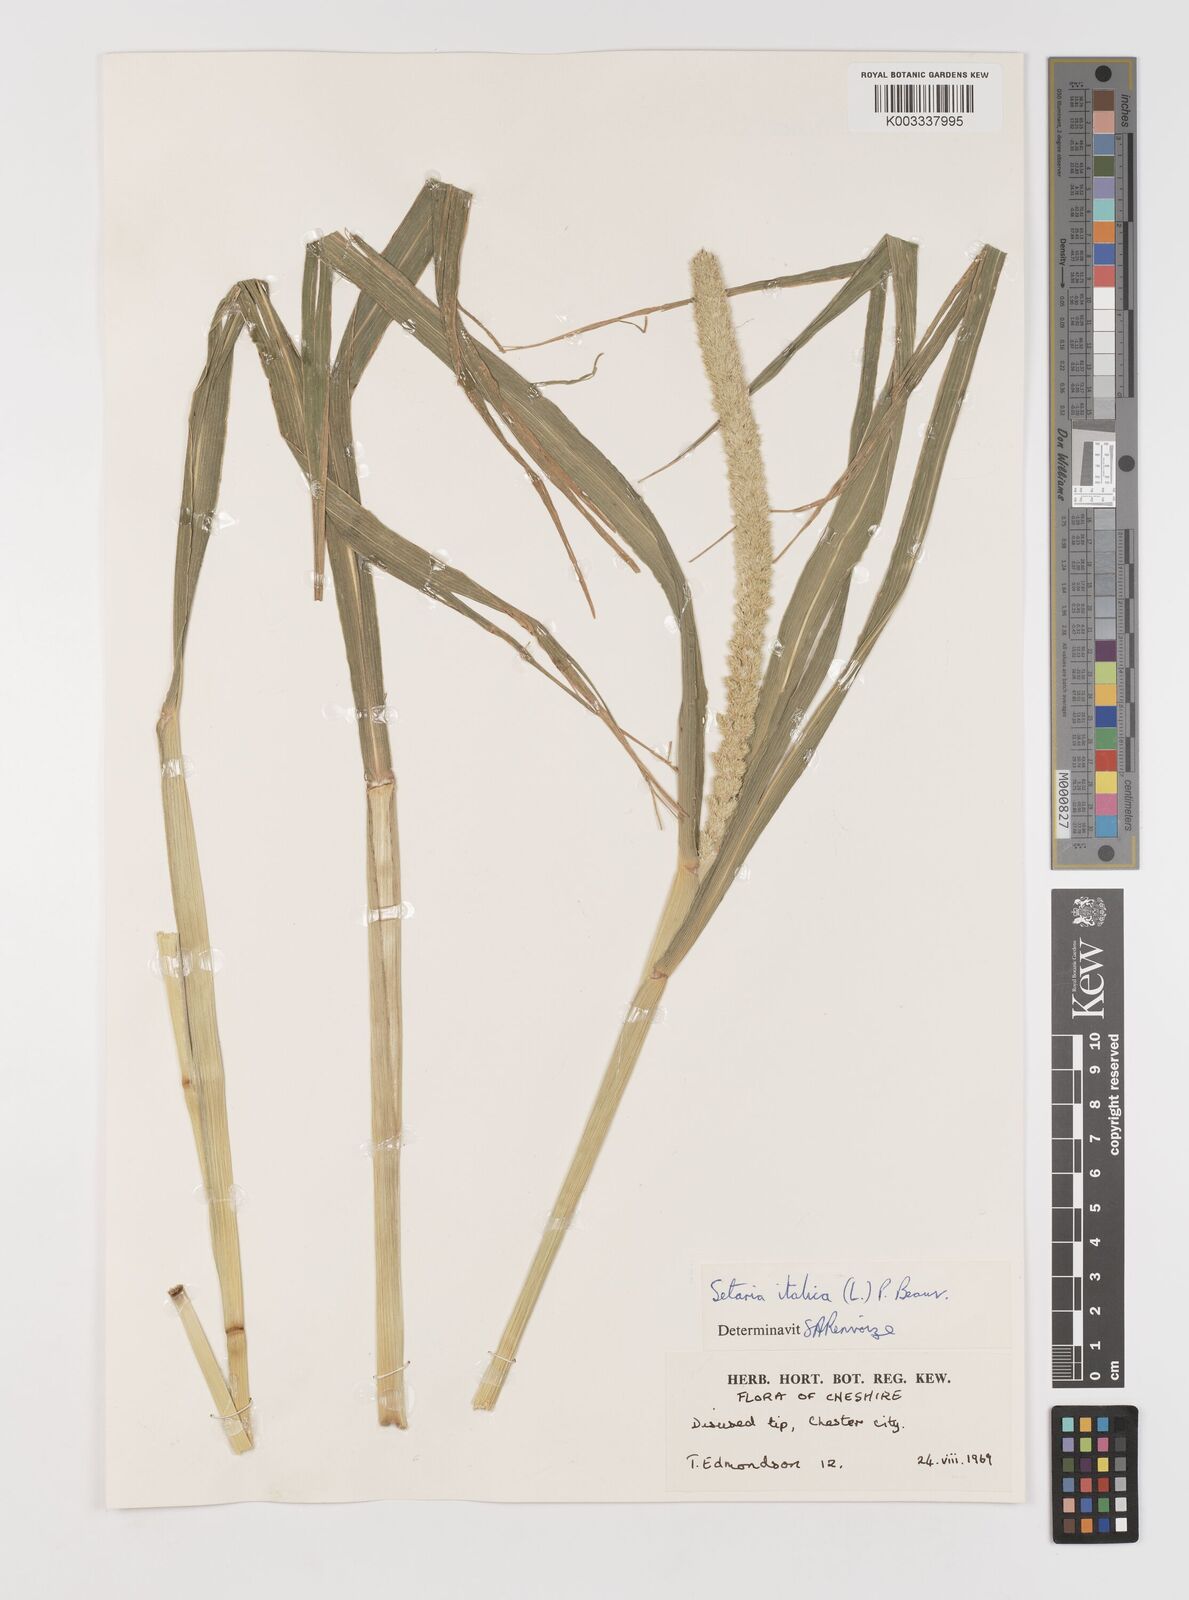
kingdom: Plantae
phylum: Tracheophyta
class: Liliopsida
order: Poales
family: Poaceae
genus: Setaria
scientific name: Setaria italica
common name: Foxtail bristle-grass
